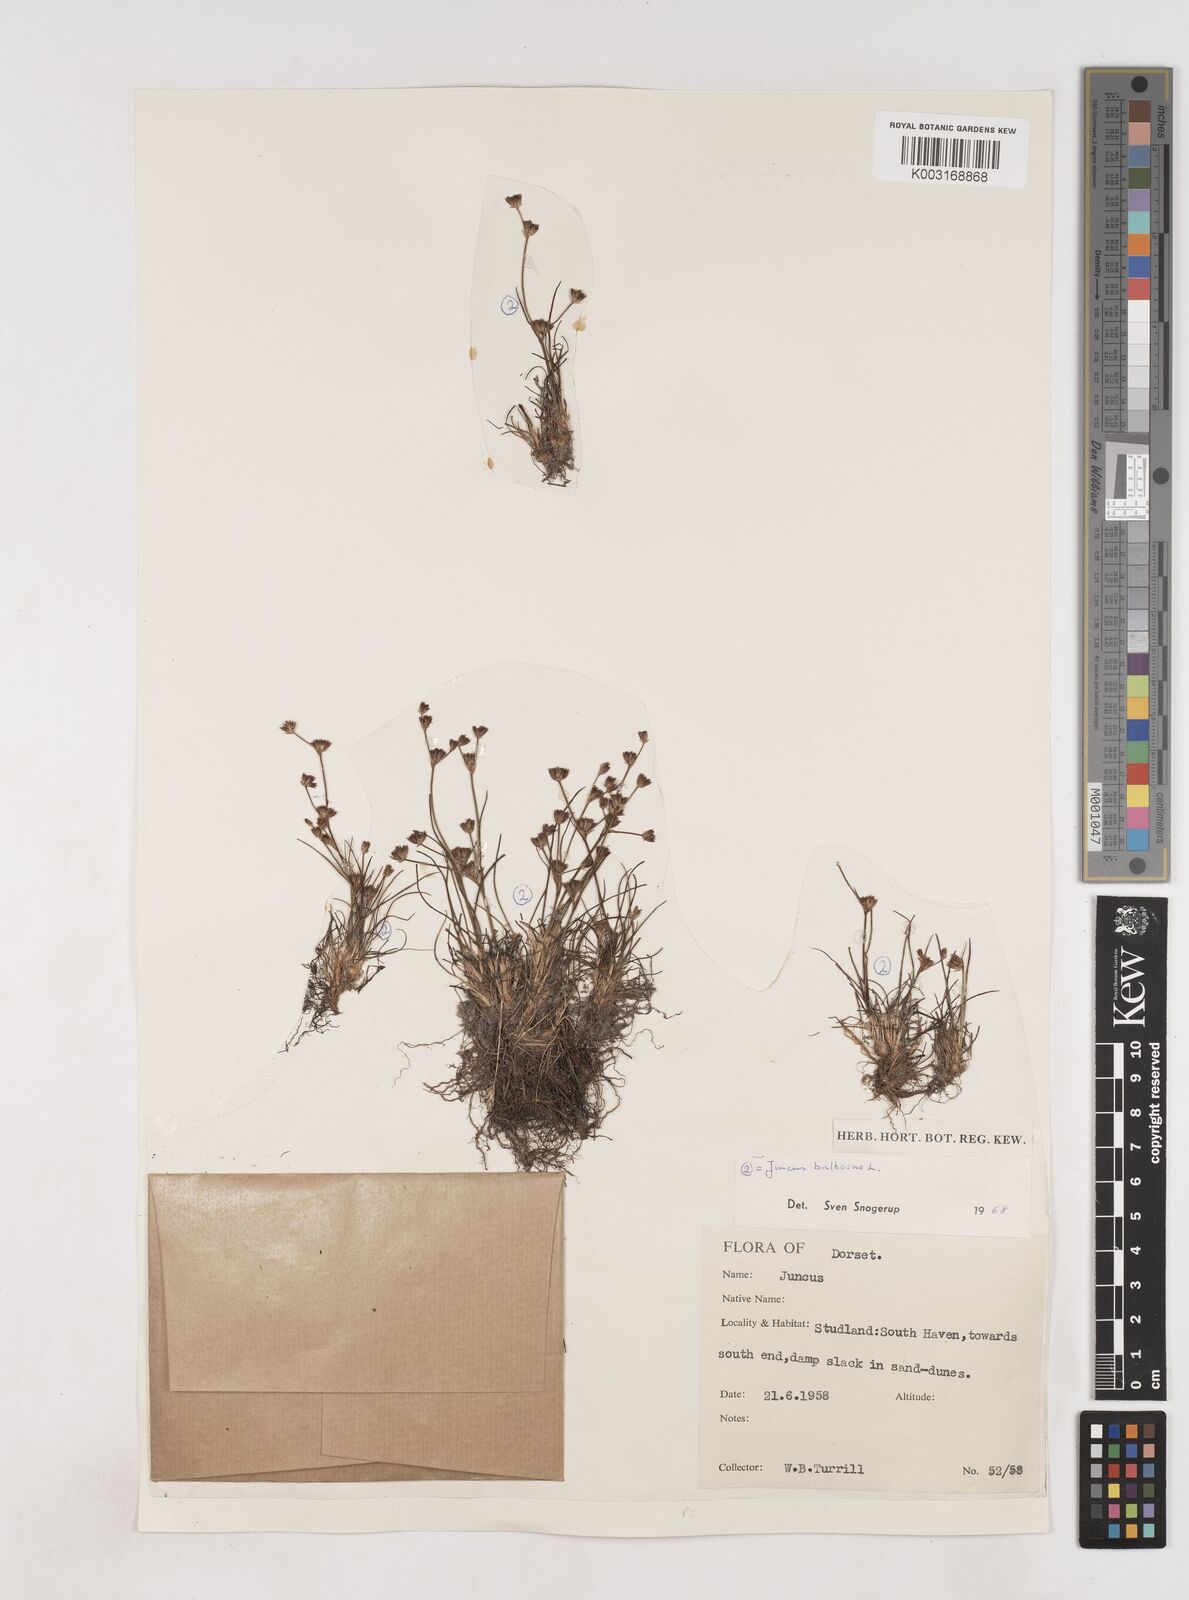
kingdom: Plantae
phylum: Tracheophyta
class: Liliopsida
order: Poales
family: Juncaceae
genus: Juncus
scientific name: Juncus bulbosus
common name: Bulbous rush
